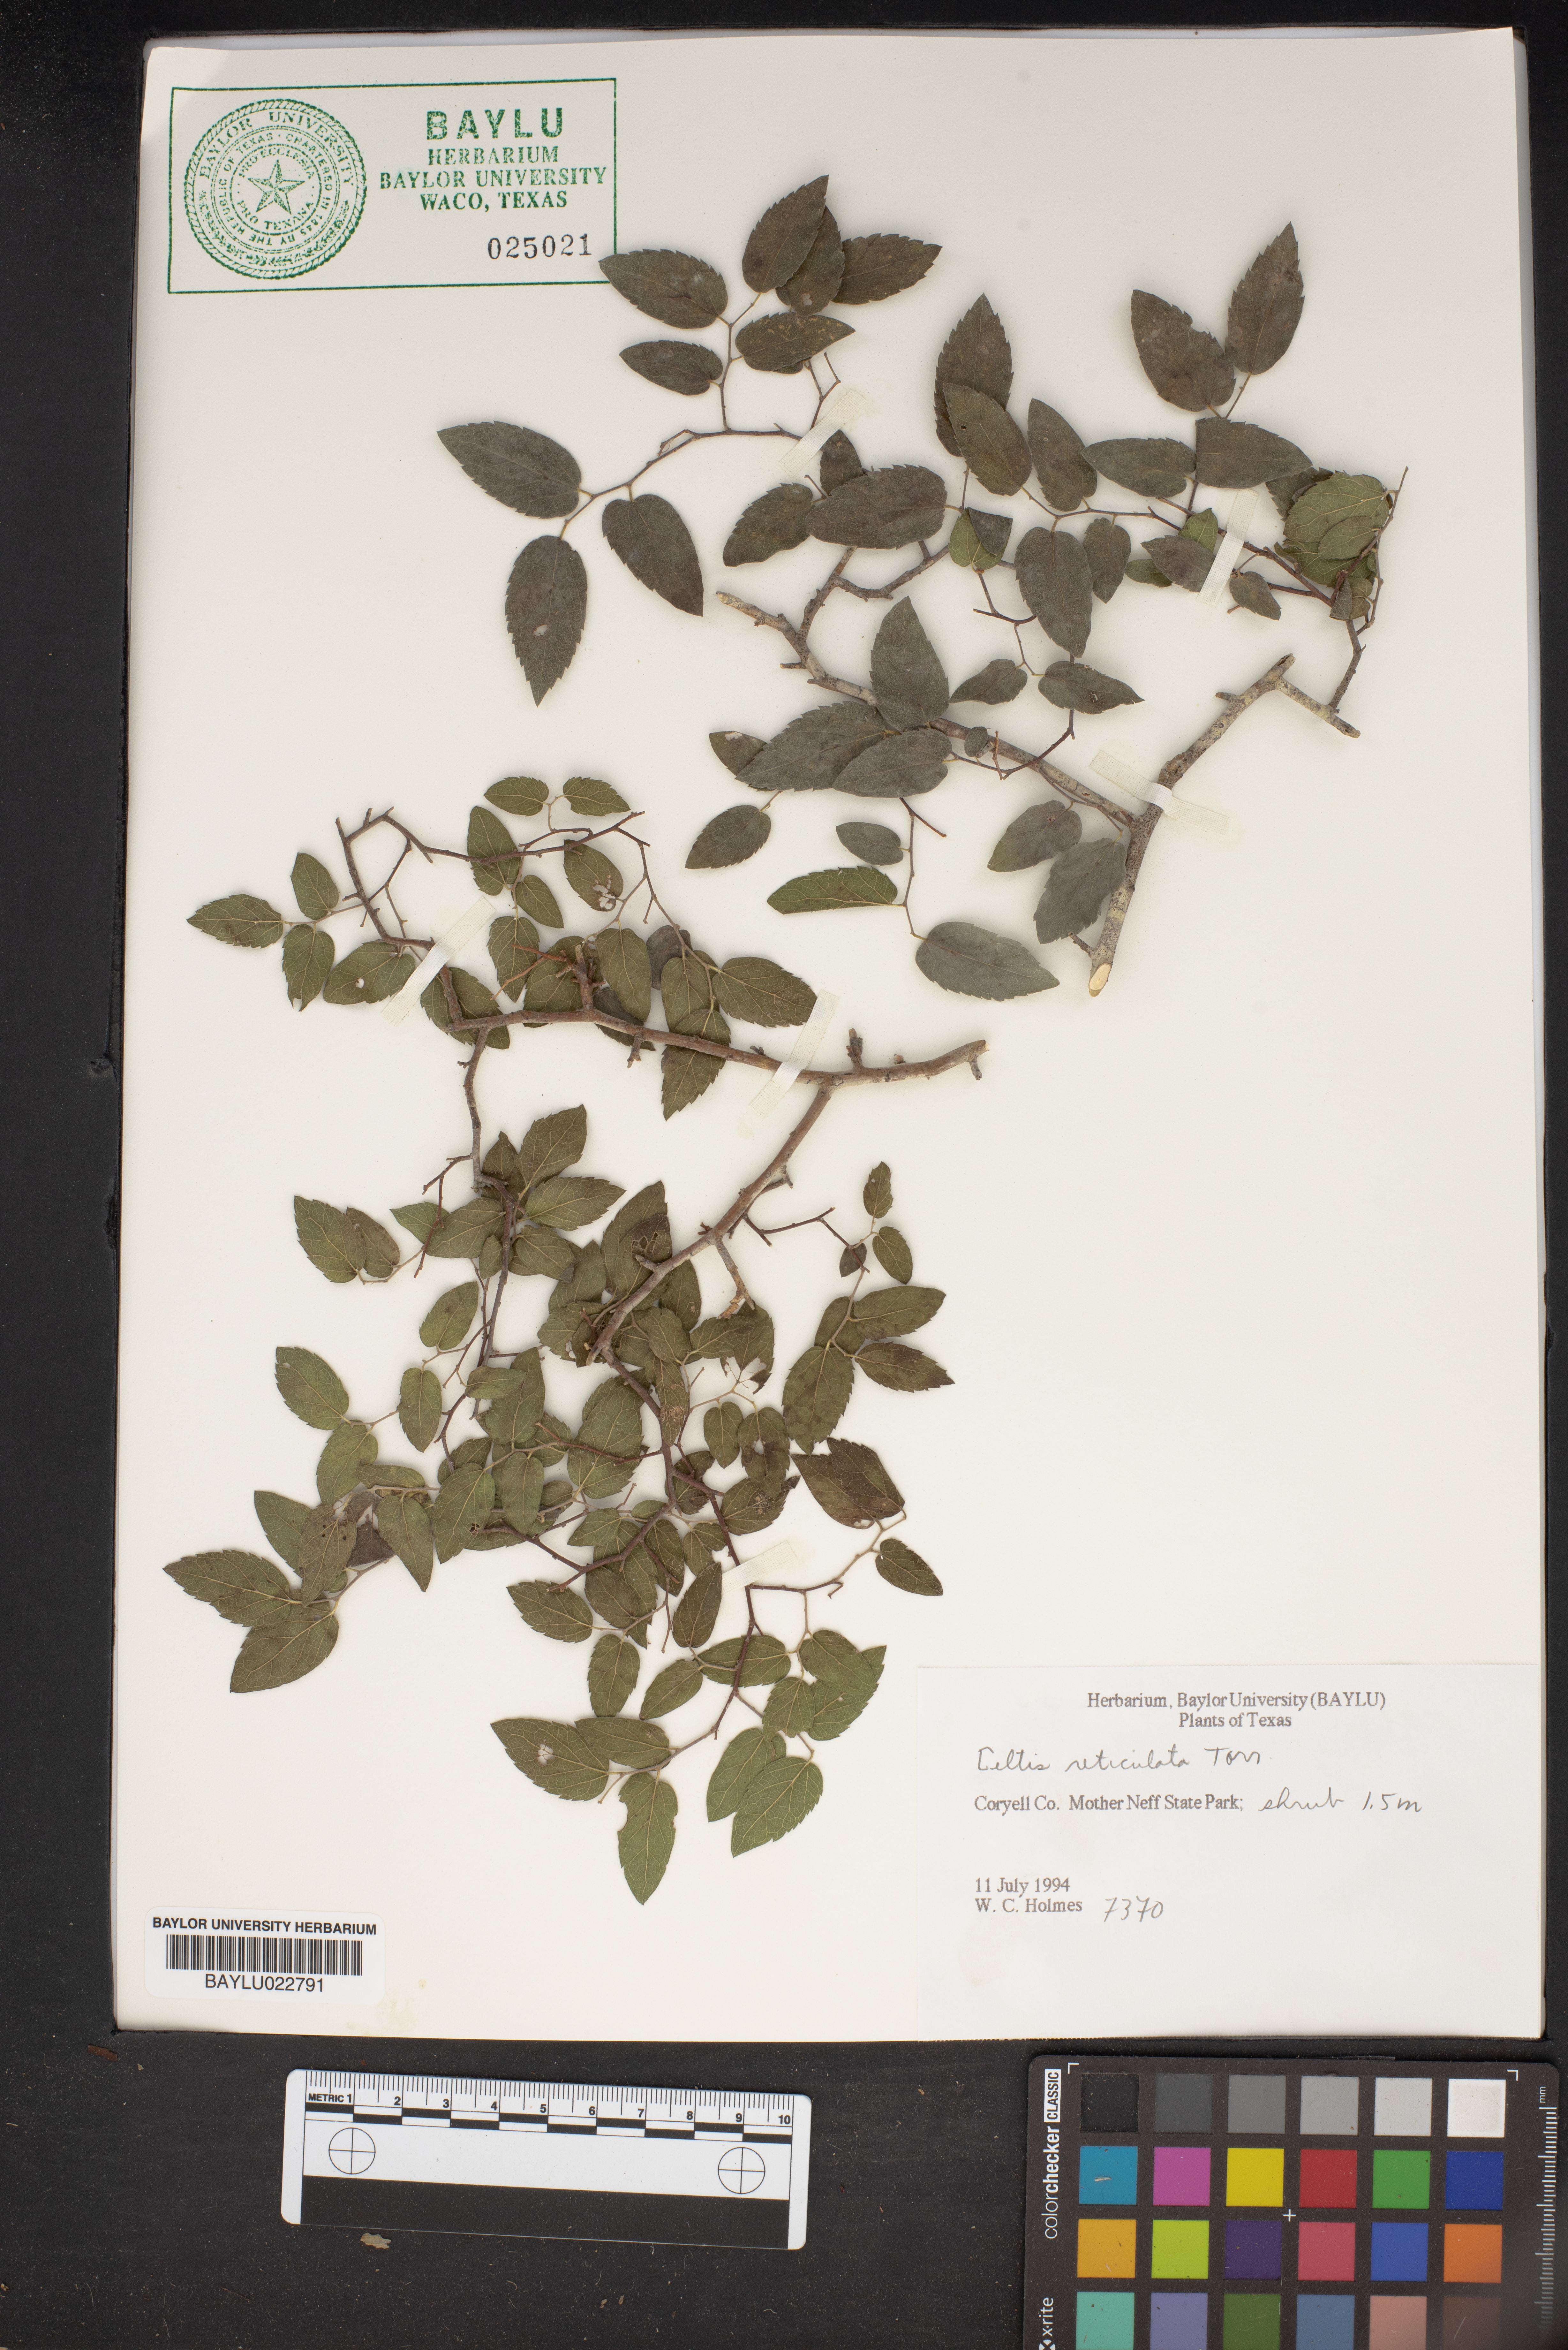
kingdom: Plantae
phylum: Tracheophyta
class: Magnoliopsida
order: Rosales
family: Cannabaceae
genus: Celtis
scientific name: Celtis reticulata
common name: Netleaf hackberry
